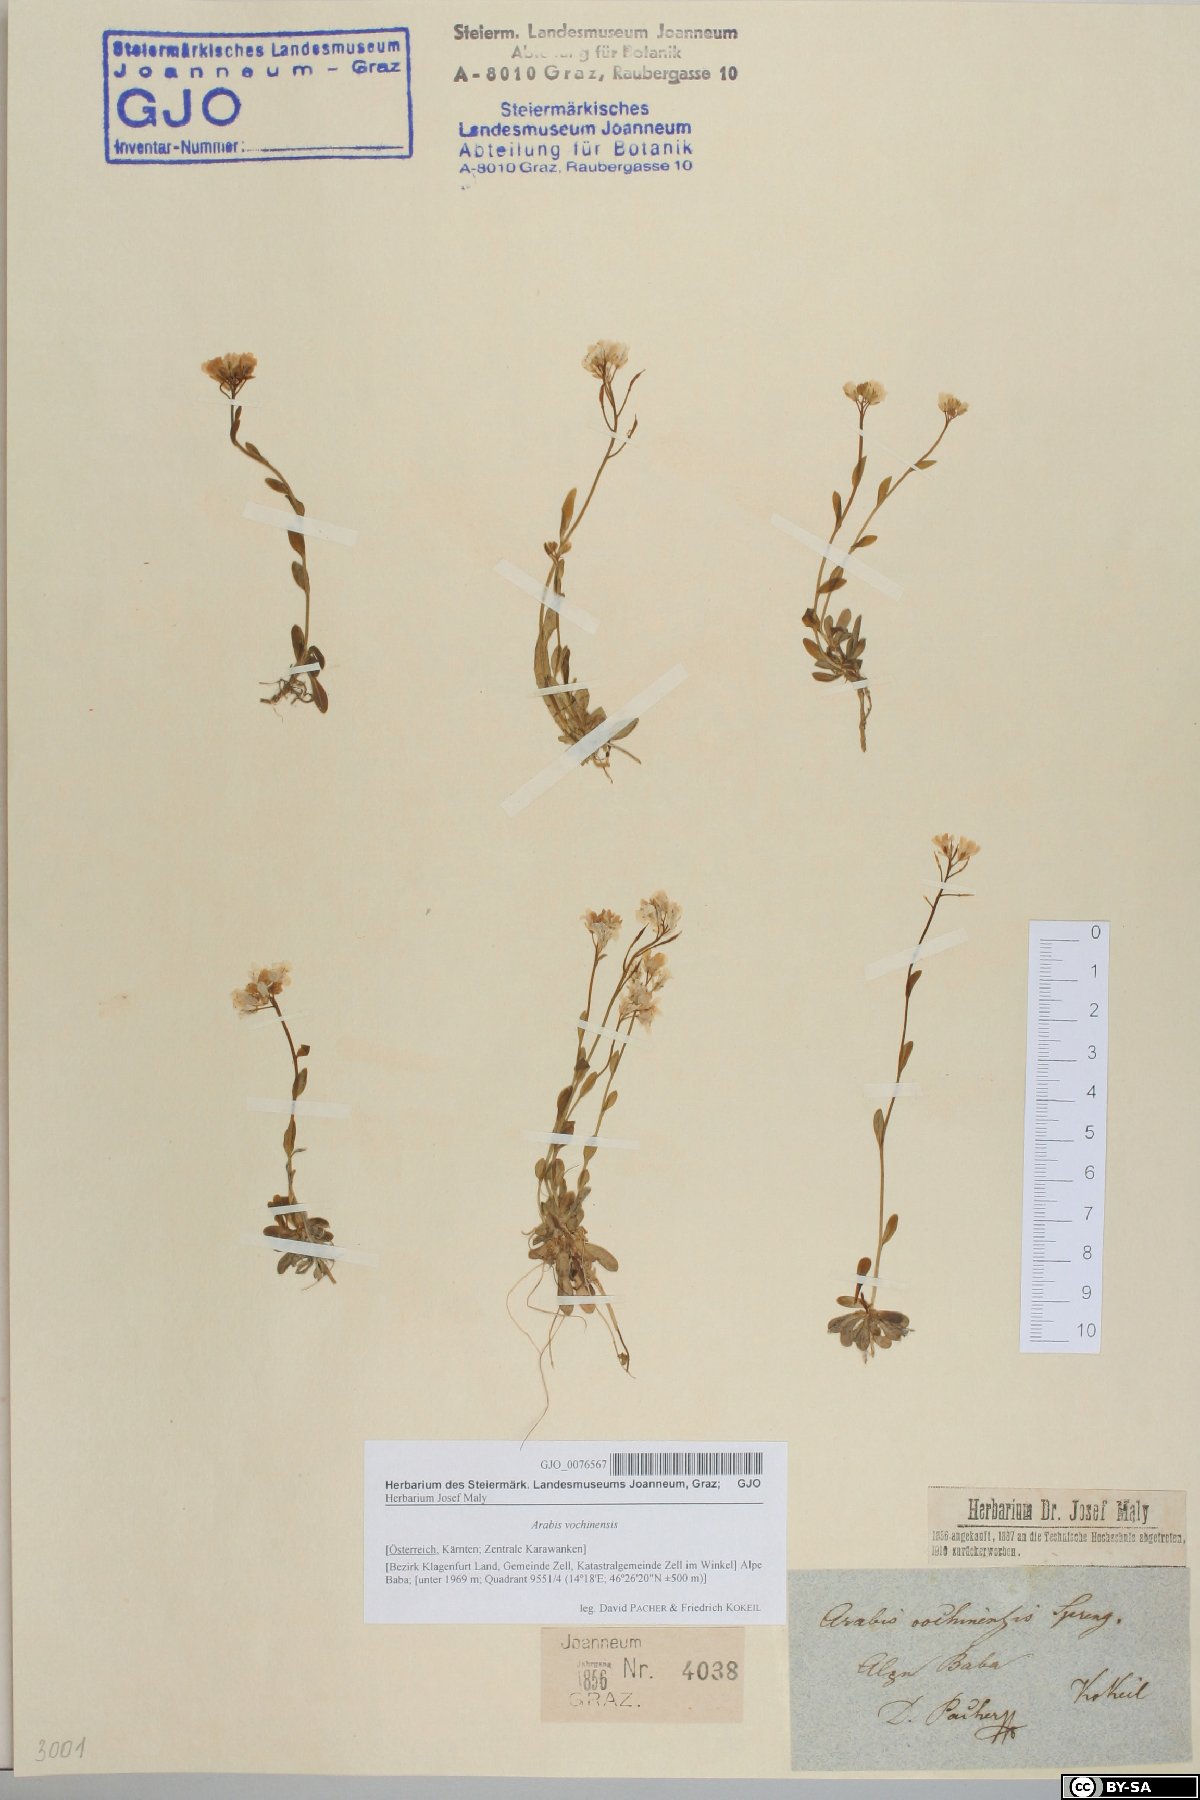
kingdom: Plantae
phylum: Tracheophyta
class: Magnoliopsida
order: Brassicales
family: Brassicaceae
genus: Arabis
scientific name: Arabis vochinensis
